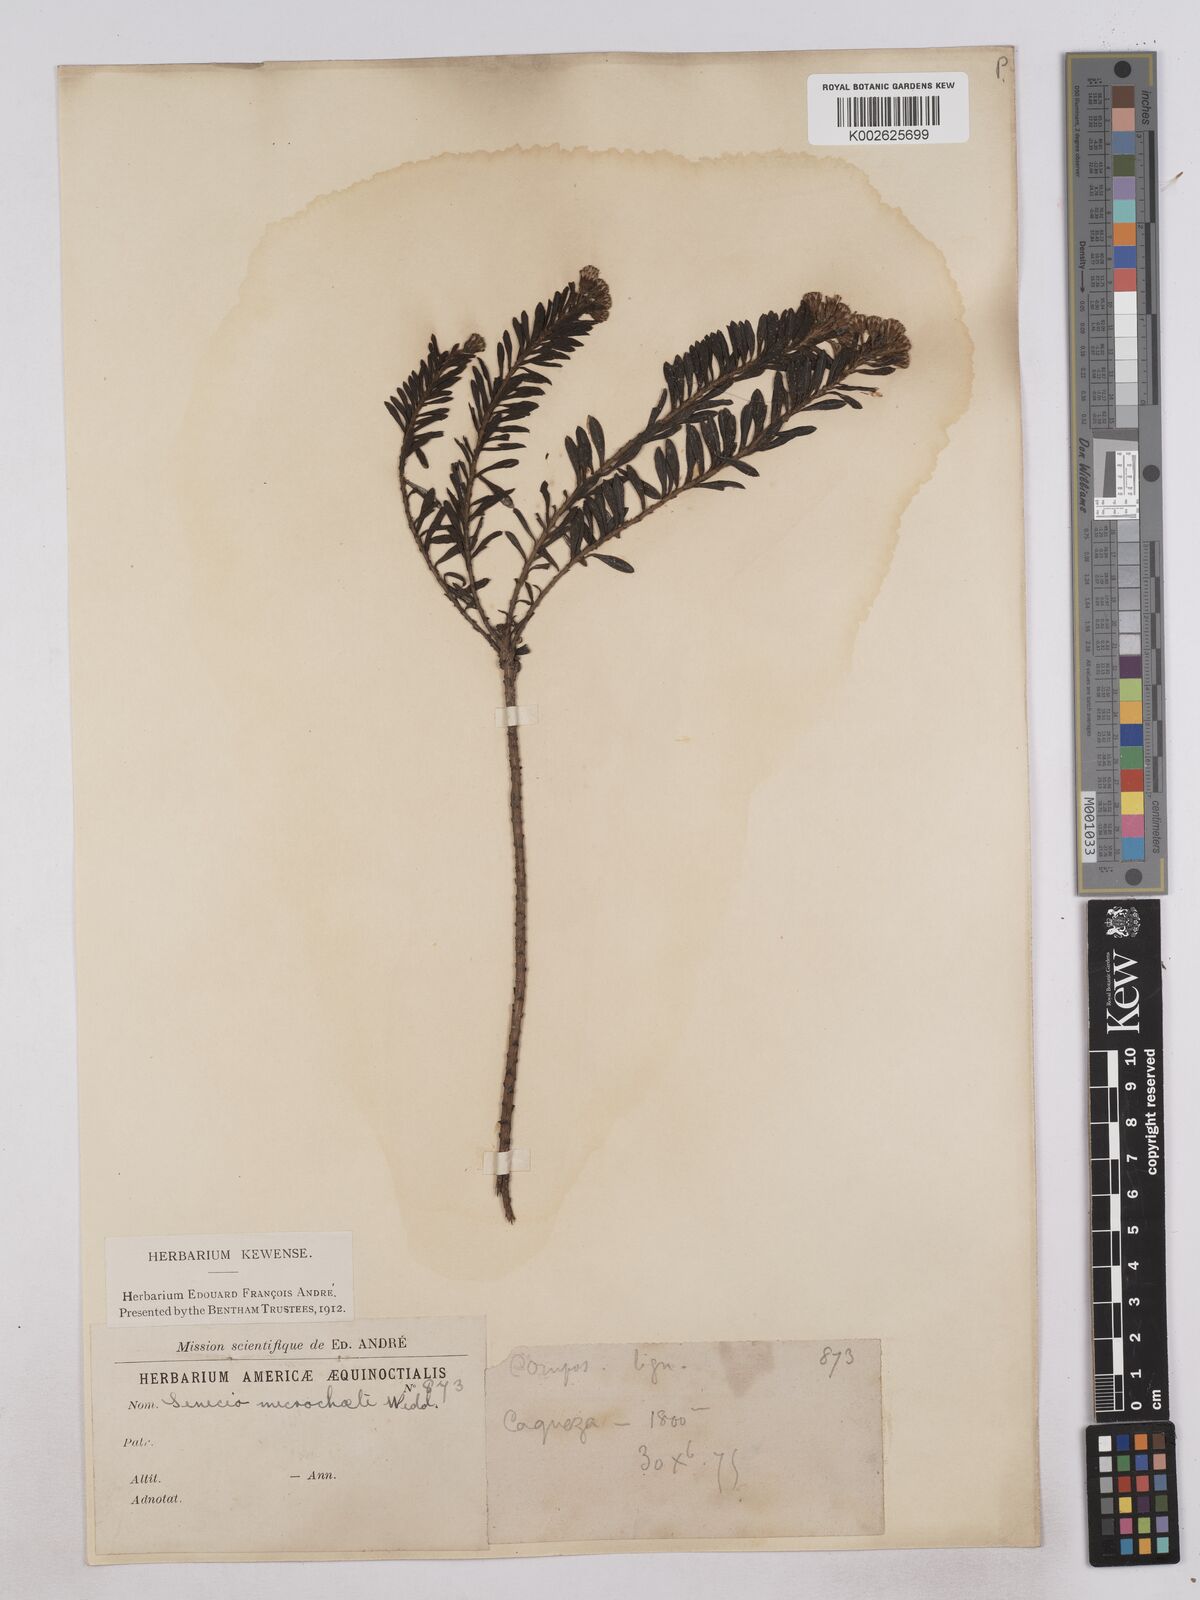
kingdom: Plantae
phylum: Tracheophyta
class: Magnoliopsida
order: Asterales
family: Asteraceae
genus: Monticalia
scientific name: Monticalia corymbosa
